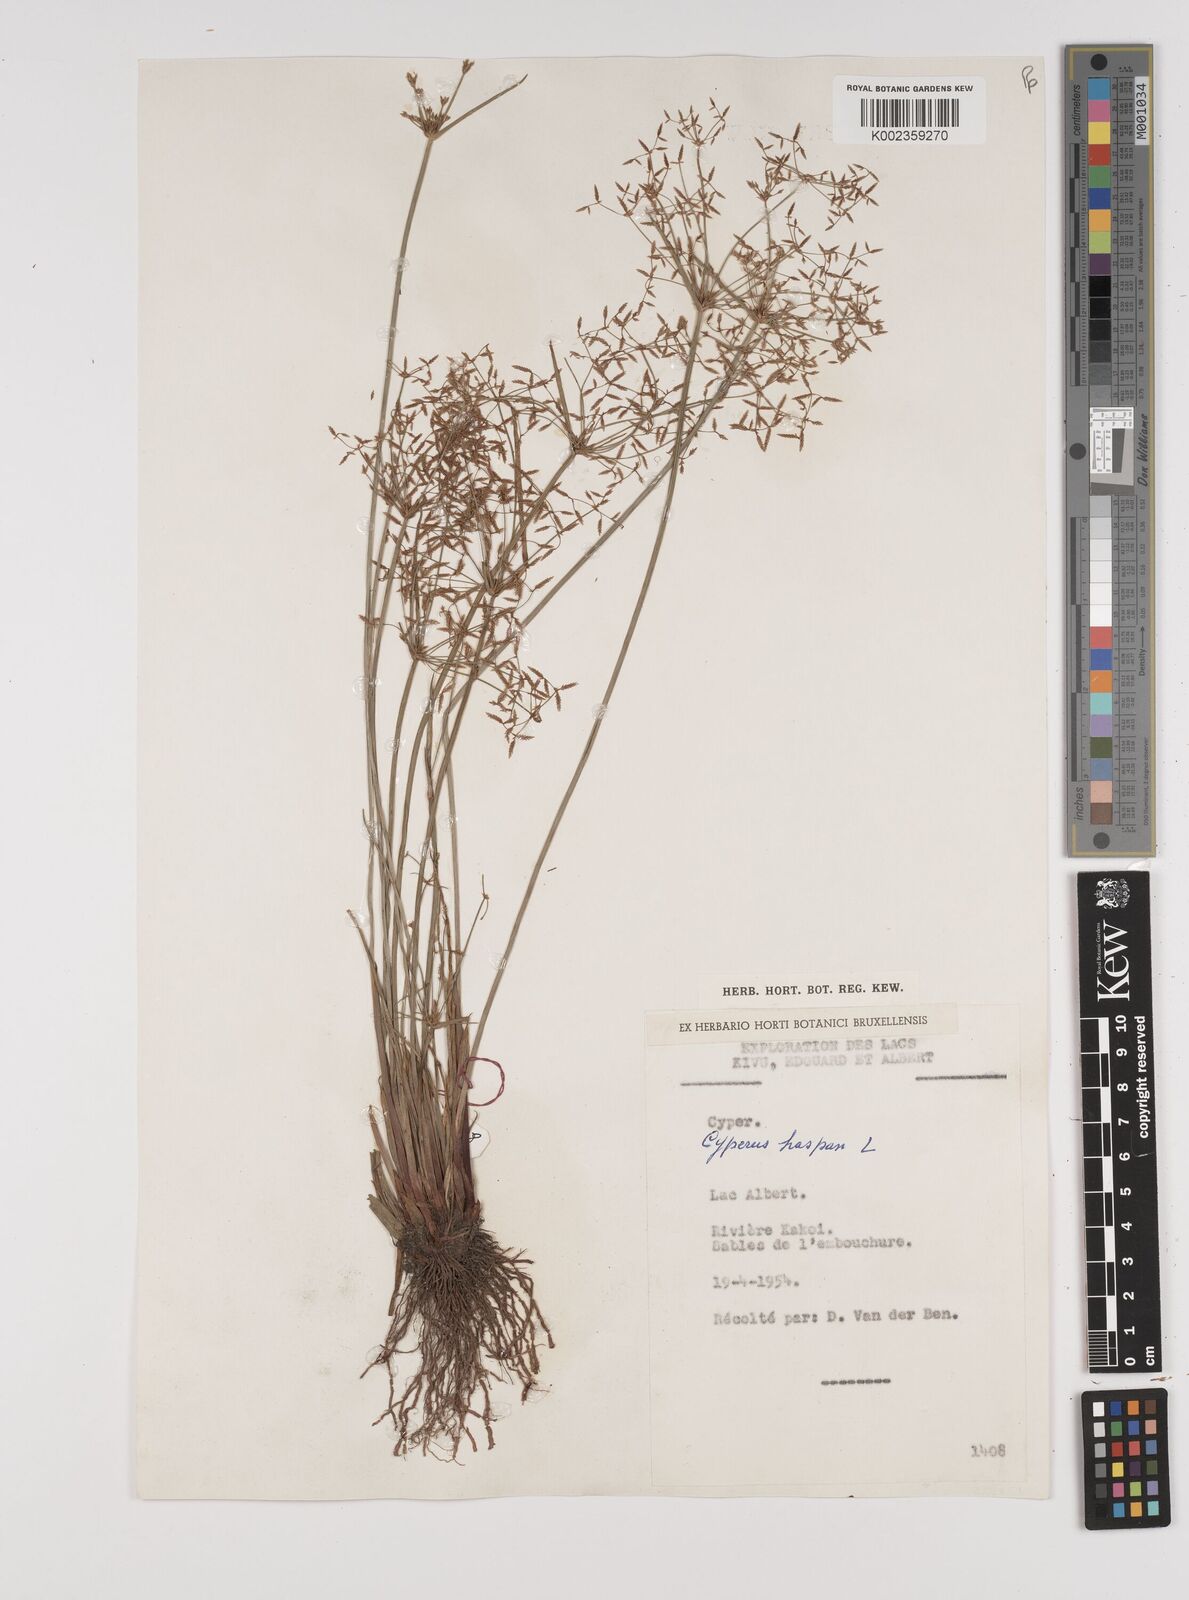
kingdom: Plantae
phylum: Tracheophyta
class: Liliopsida
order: Poales
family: Cyperaceae
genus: Cyperus
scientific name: Cyperus haspan
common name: Haspan flatsedge
